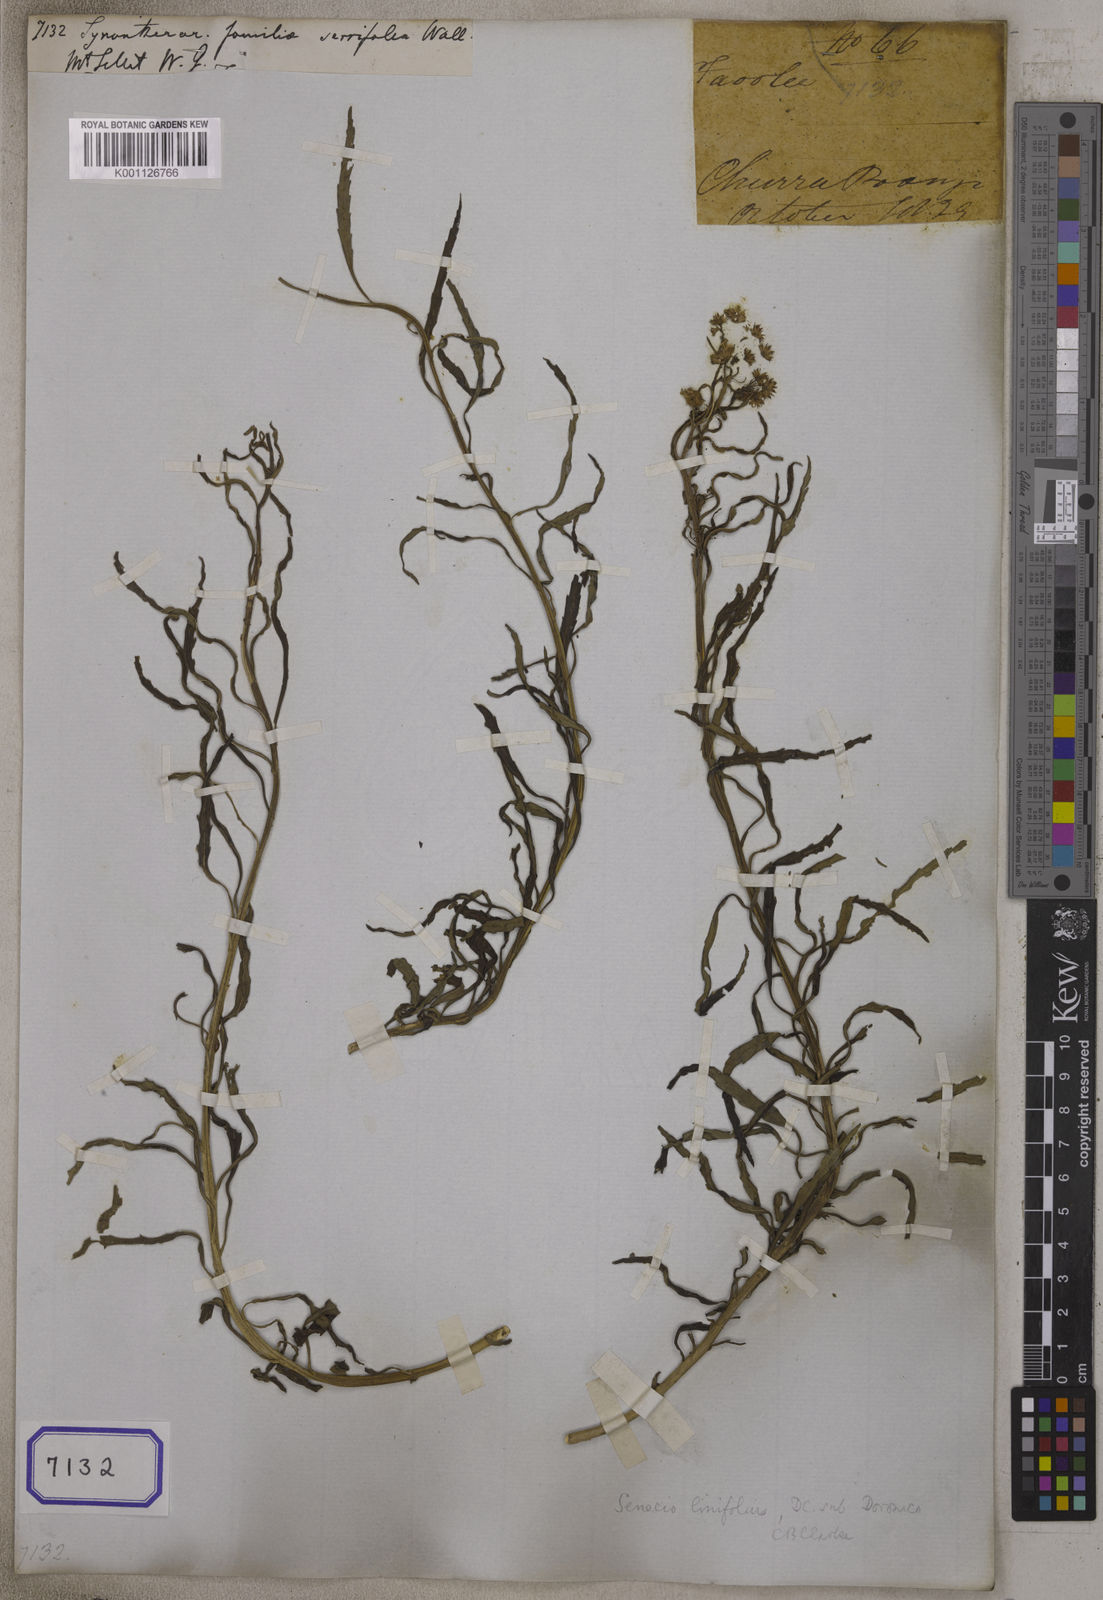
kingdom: Plantae
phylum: Tracheophyta
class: Magnoliopsida
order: Asterales
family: Asteraceae
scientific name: Asteraceae
